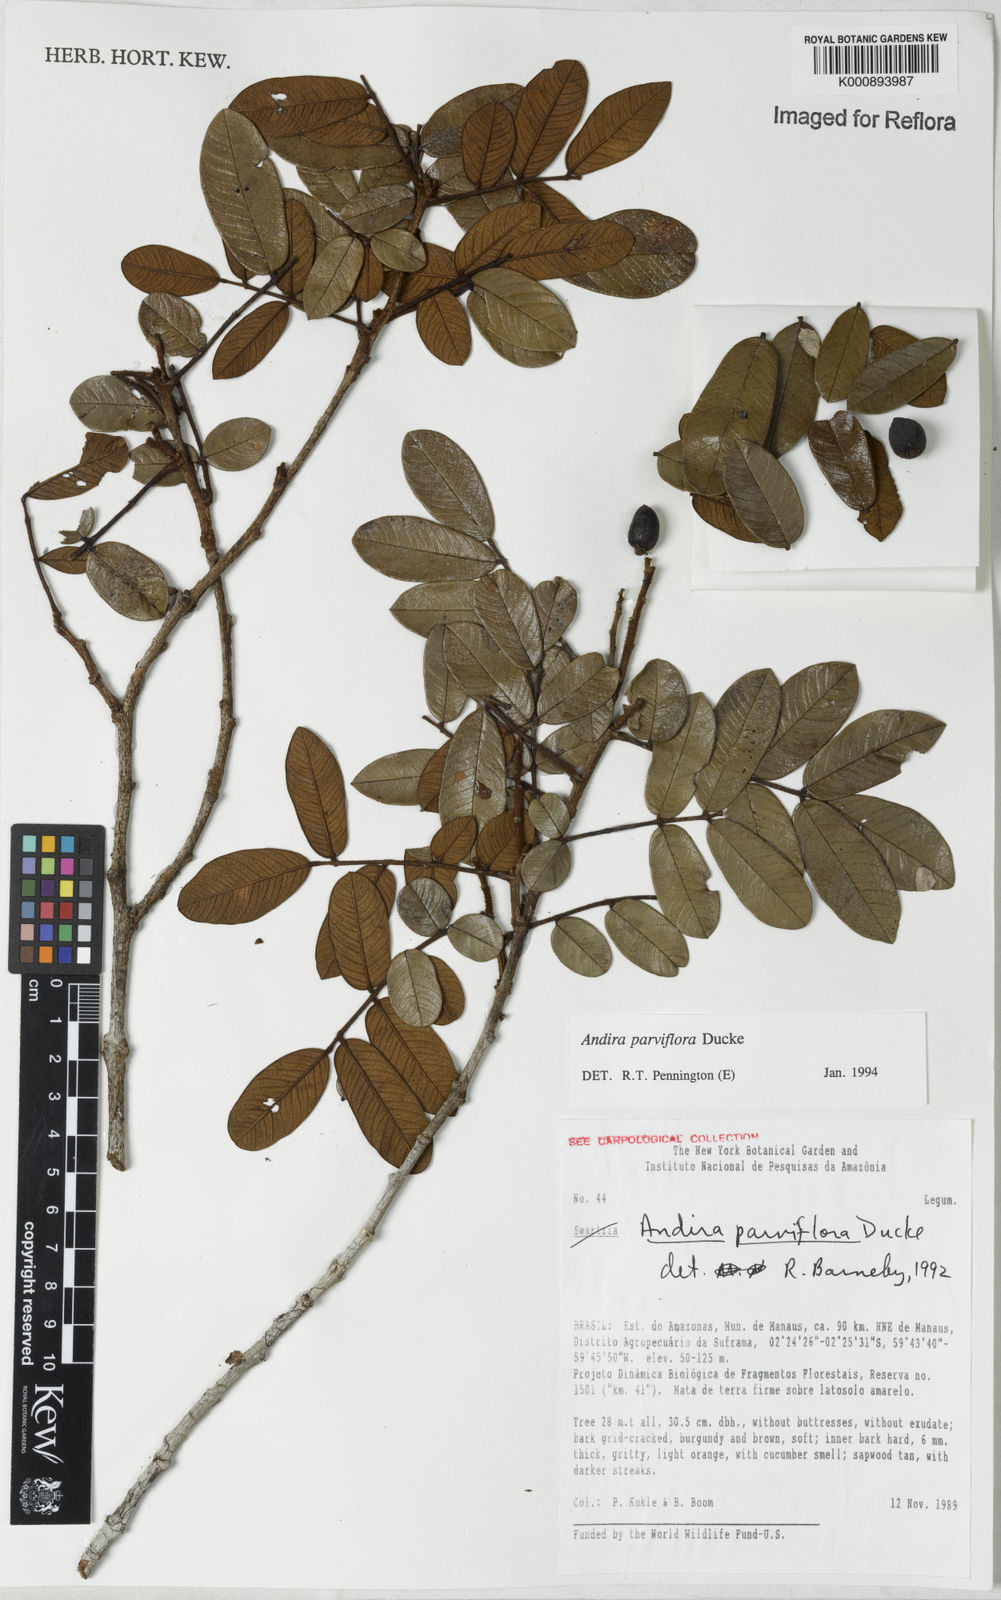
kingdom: Plantae
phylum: Tracheophyta
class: Magnoliopsida
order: Fabales
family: Fabaceae
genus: Andira
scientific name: Andira parviflora
